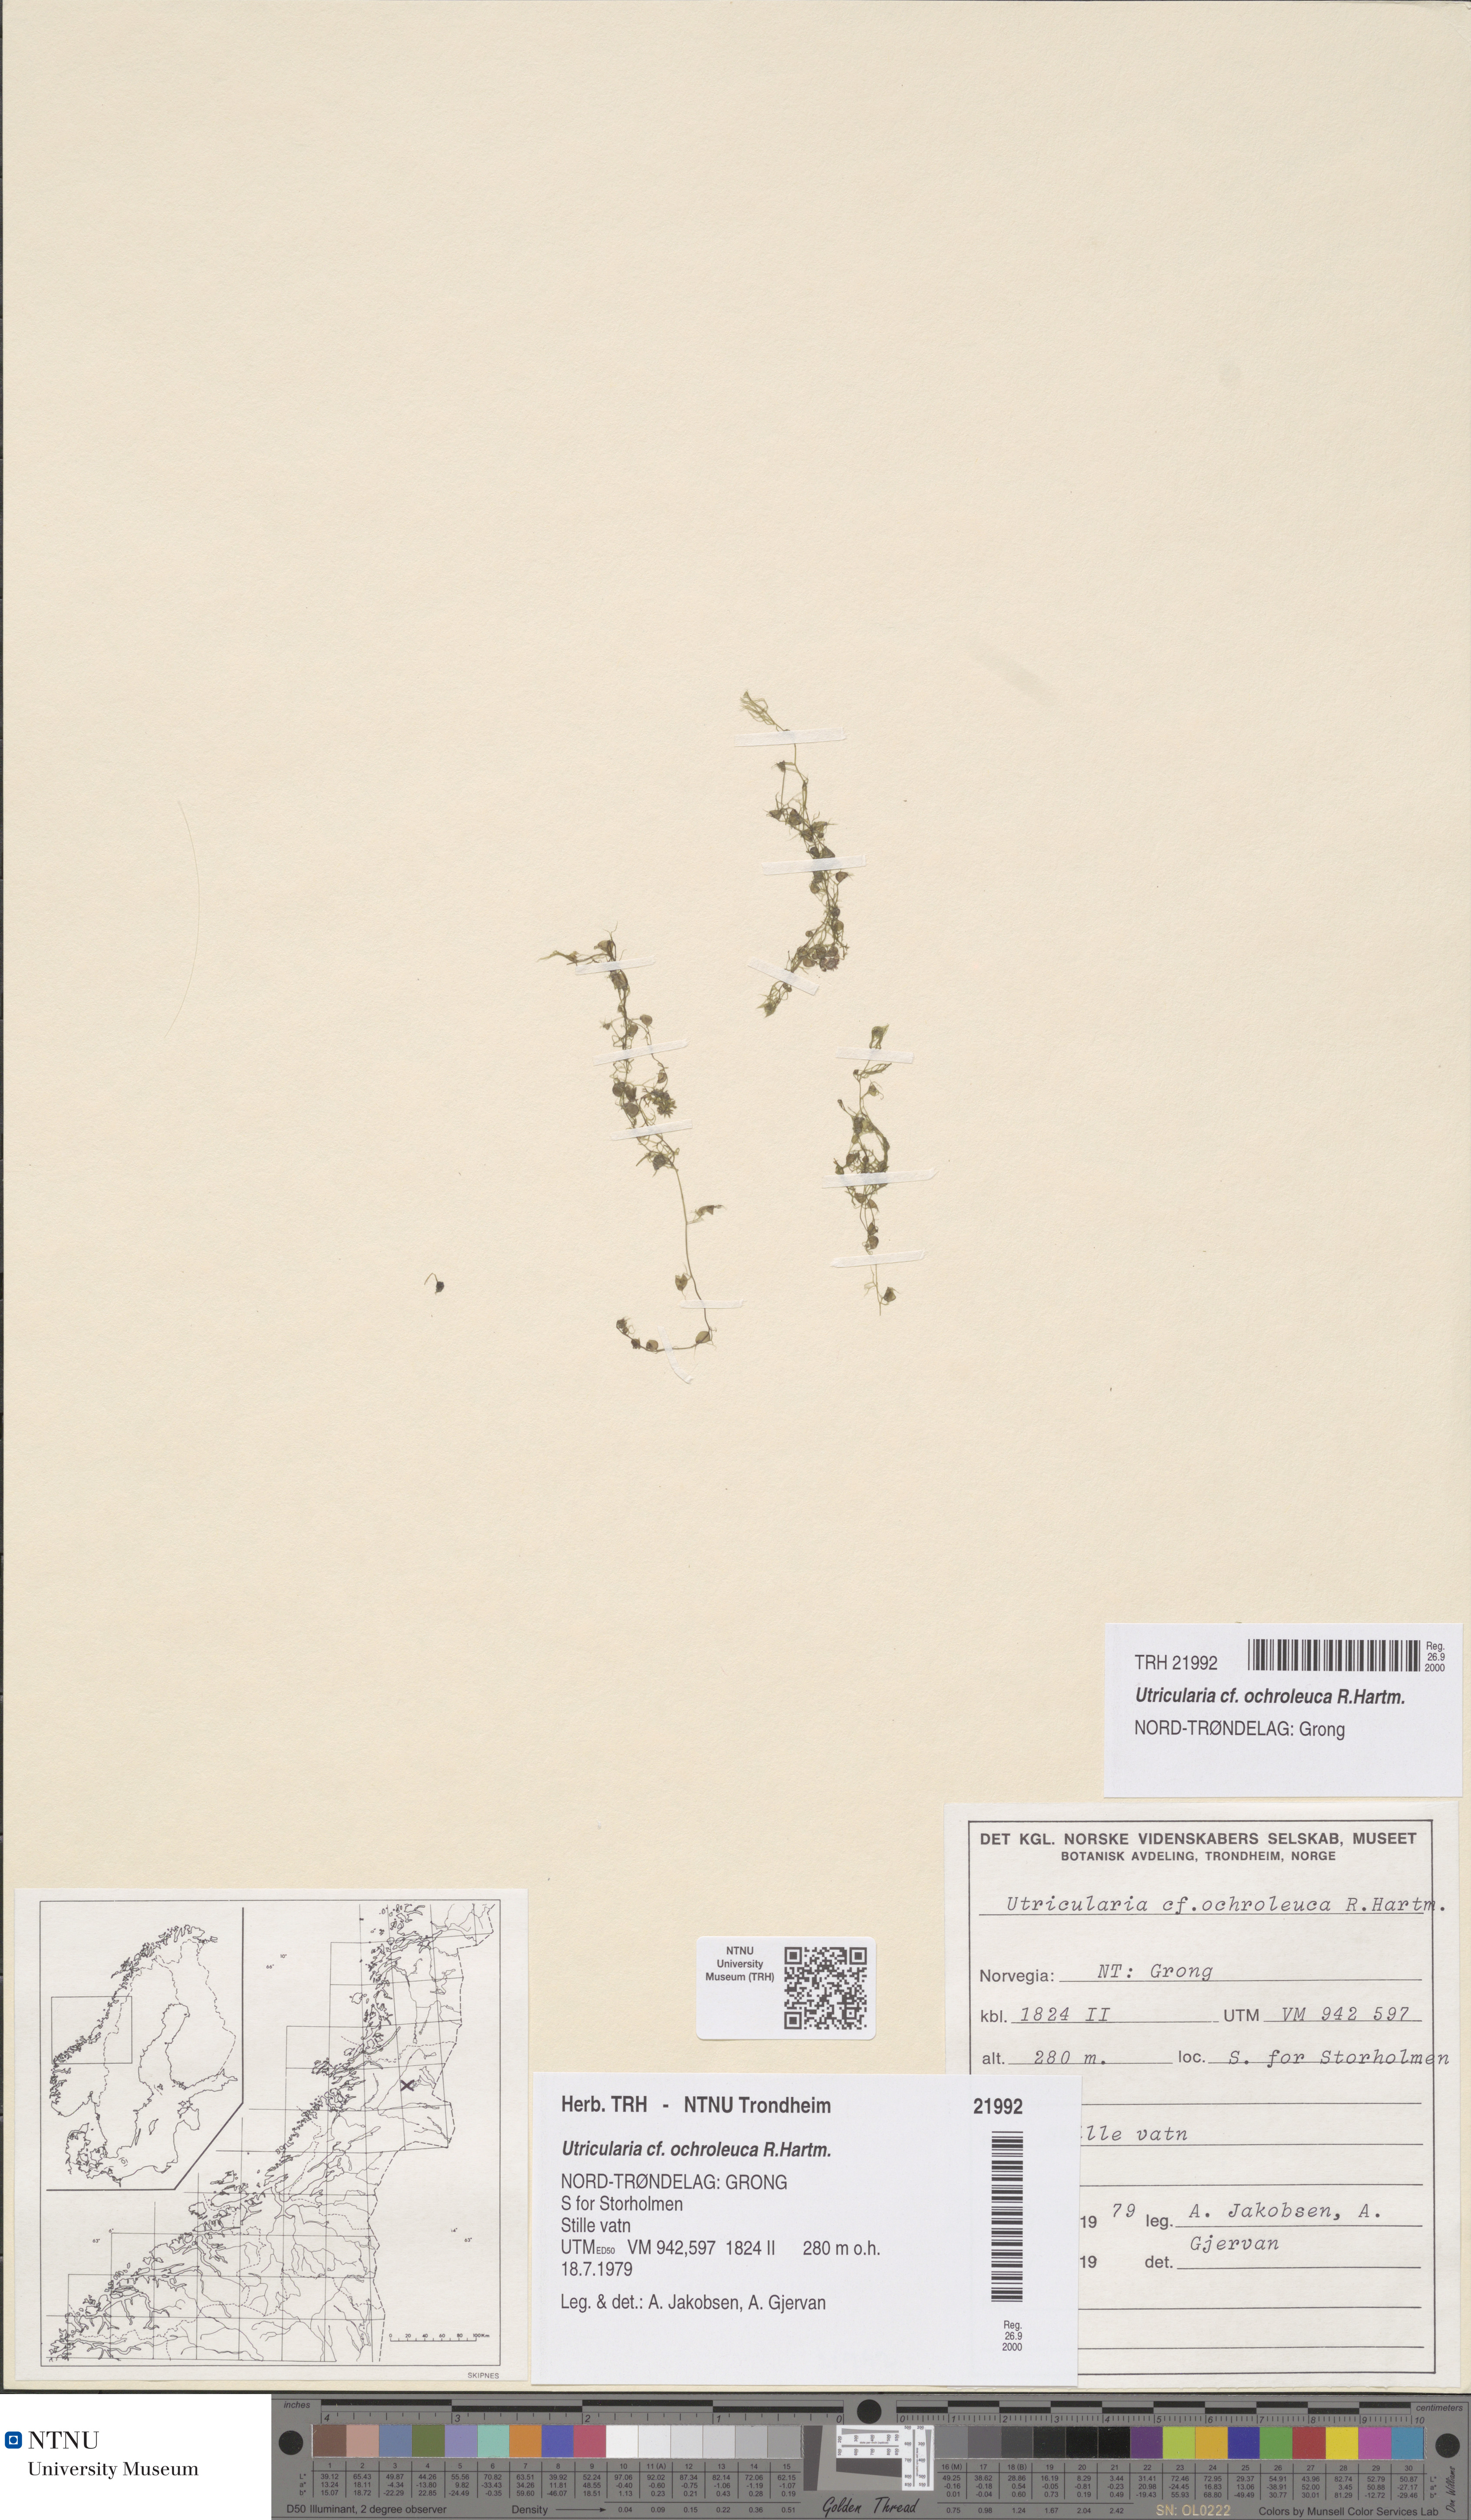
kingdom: Plantae
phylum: Tracheophyta
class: Magnoliopsida
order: Lamiales
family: Lentibulariaceae
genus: Utricularia
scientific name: Utricularia ochroleuca
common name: Pale bladderwort
